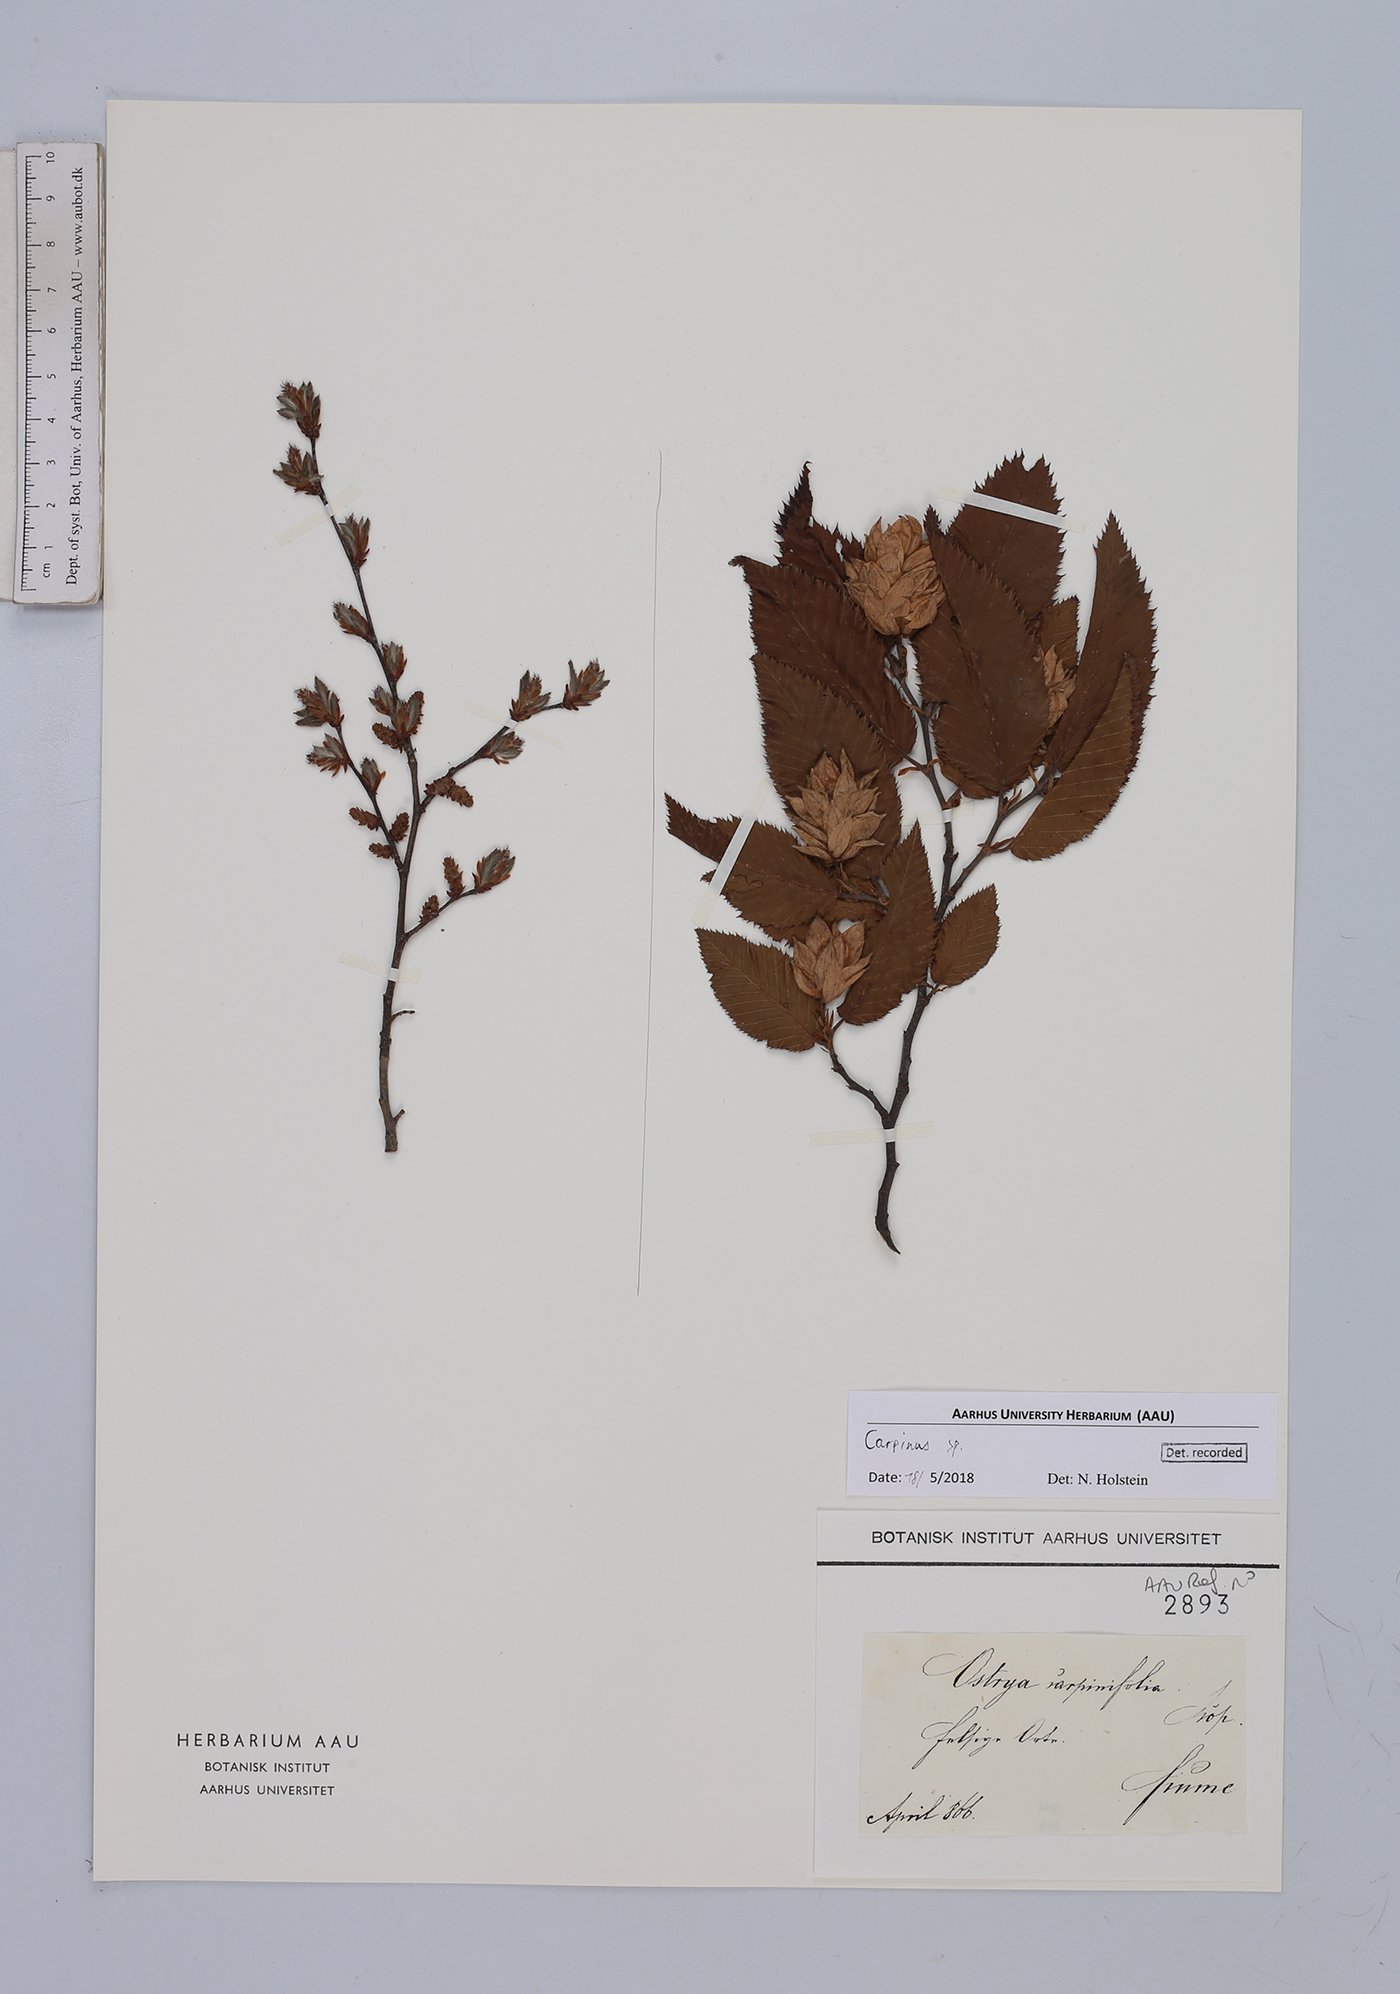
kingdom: Plantae
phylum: Tracheophyta
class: Magnoliopsida
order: Fagales
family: Betulaceae
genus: Carpinus
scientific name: Carpinus
